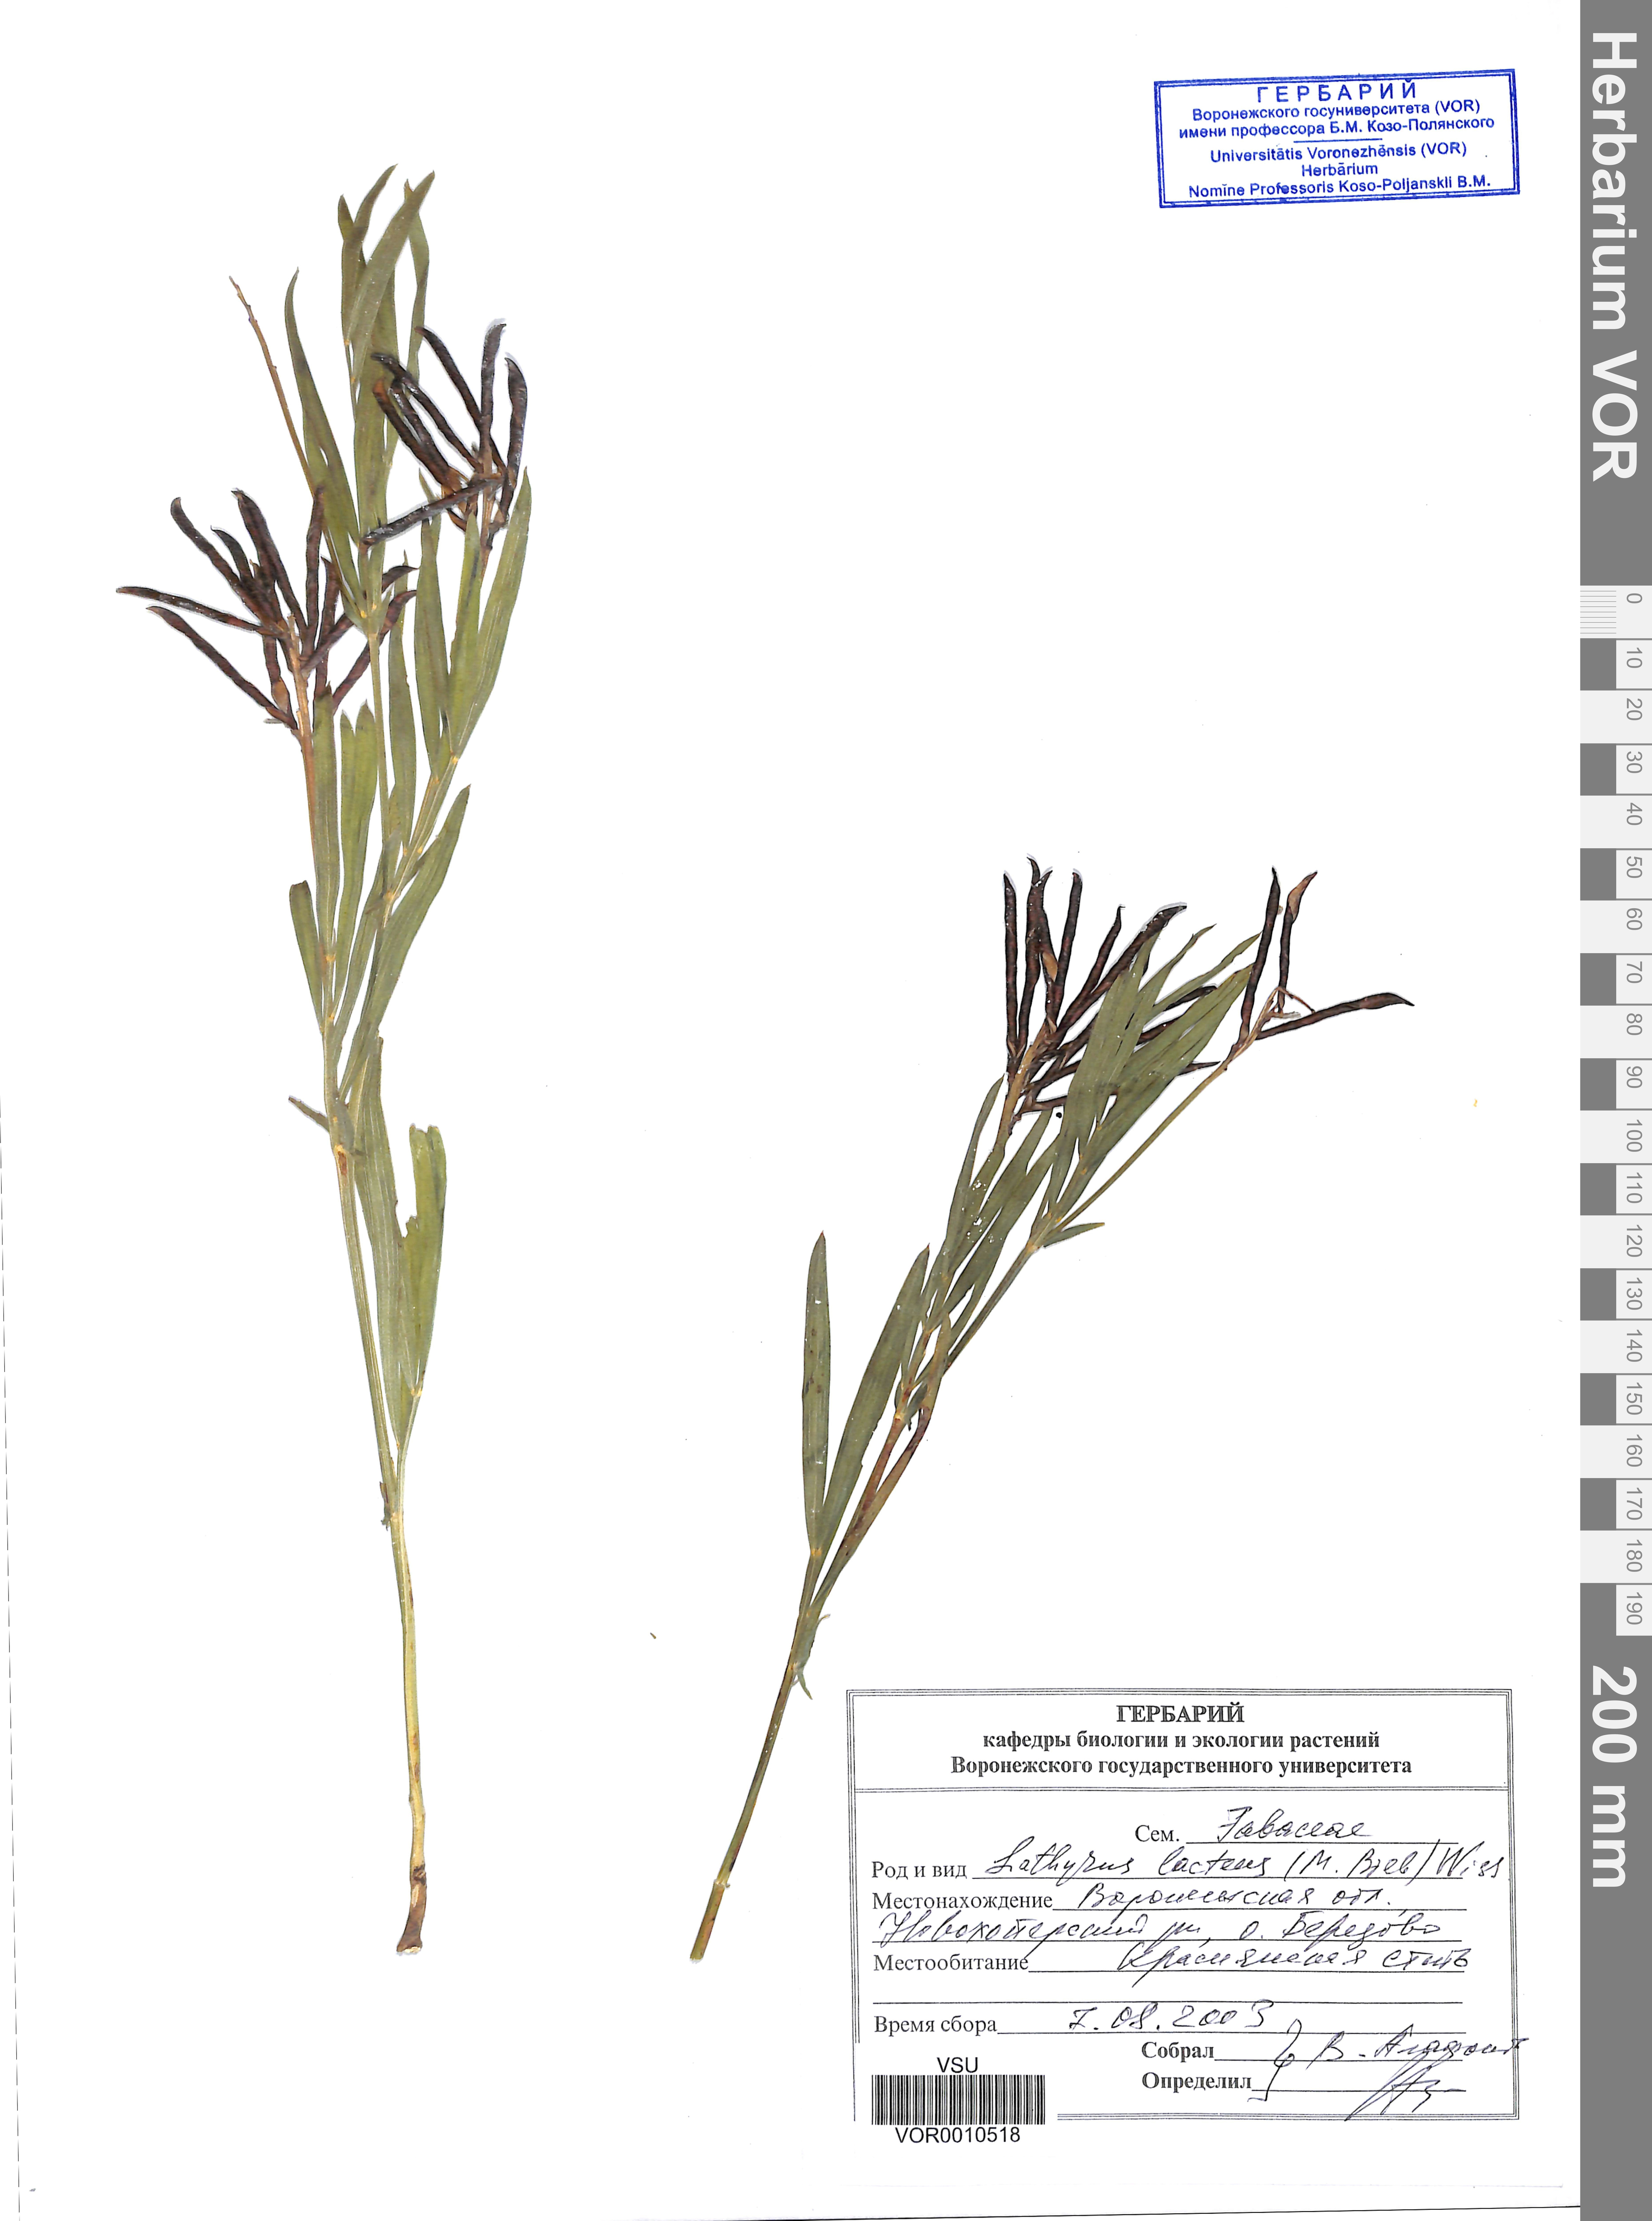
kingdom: Plantae
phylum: Tracheophyta
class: Magnoliopsida
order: Fabales
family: Fabaceae
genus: Lathyrus
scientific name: Lathyrus pannonicus
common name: Pea
